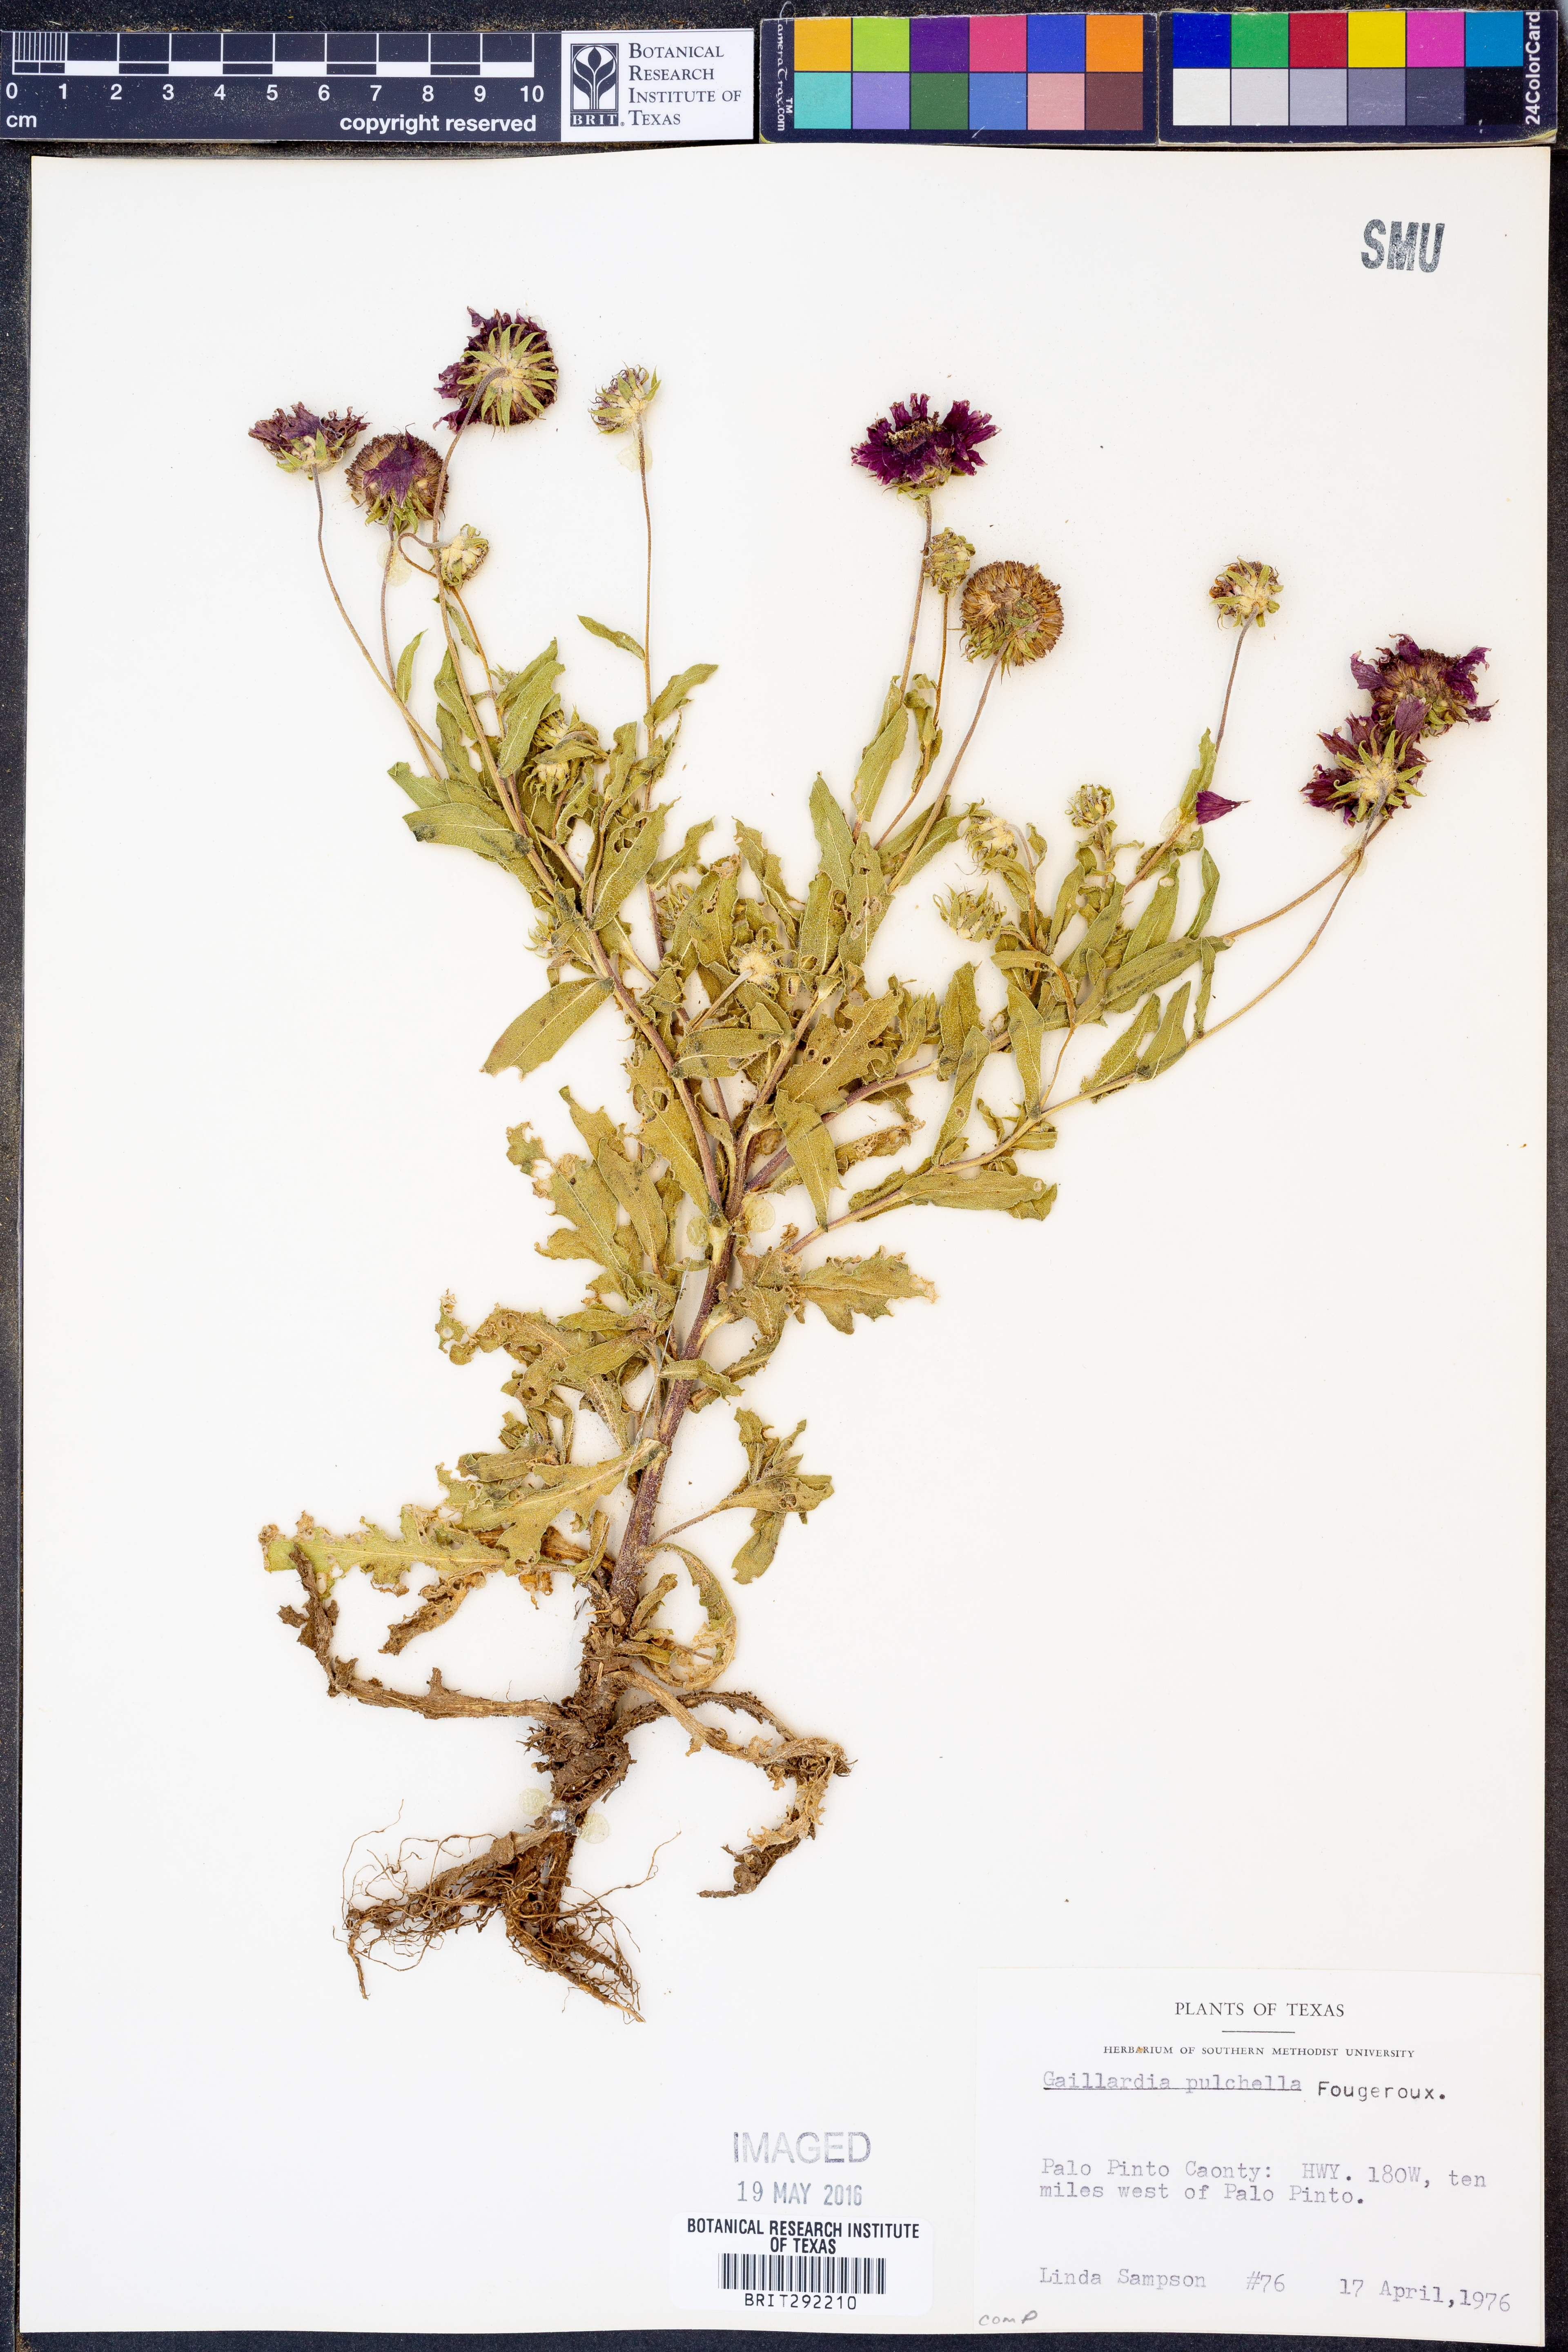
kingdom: Plantae
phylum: Tracheophyta
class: Magnoliopsida
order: Asterales
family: Asteraceae
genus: Gaillardia
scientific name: Gaillardia pulchella
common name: Firewheel
